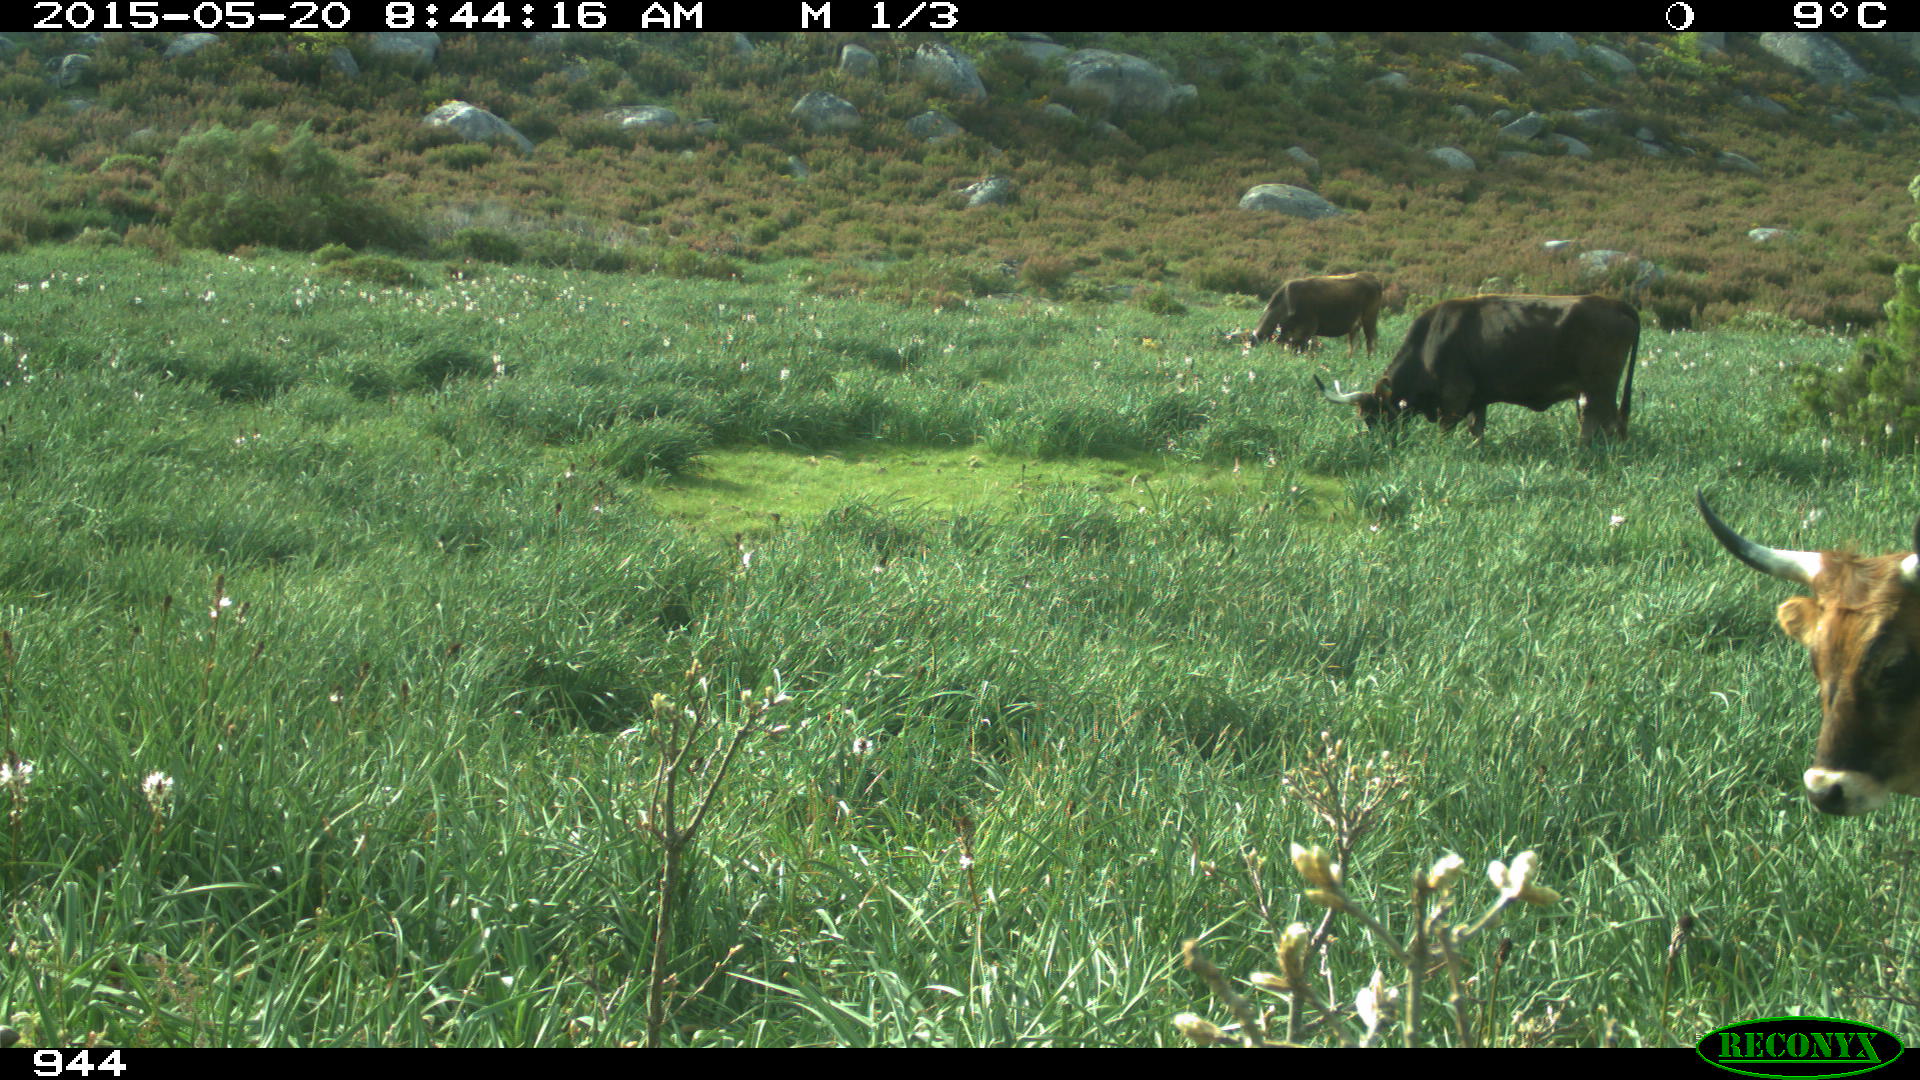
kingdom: Animalia
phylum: Chordata
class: Mammalia
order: Artiodactyla
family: Bovidae
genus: Bos
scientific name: Bos taurus
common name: Domesticated cattle
